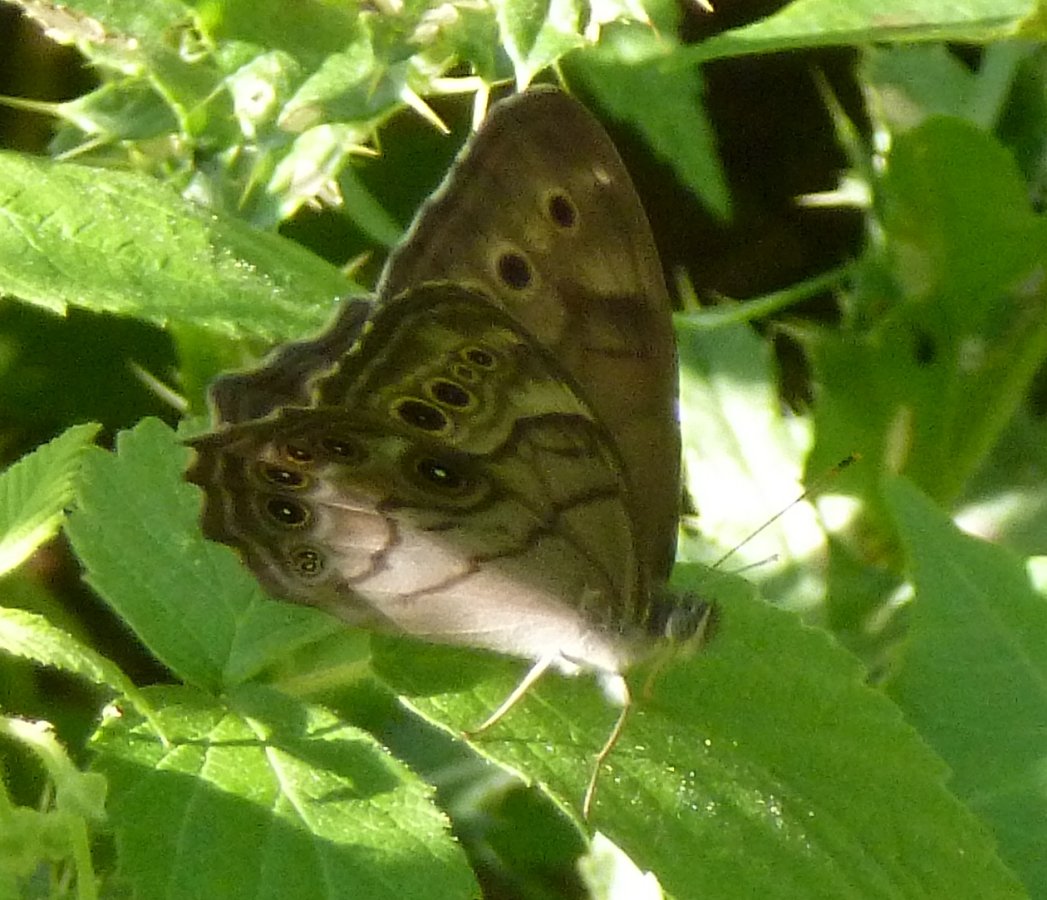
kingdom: Animalia
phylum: Arthropoda
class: Insecta
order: Lepidoptera
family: Nymphalidae
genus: Lethe
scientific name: Lethe anthedon
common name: Northern Pearly-Eye
